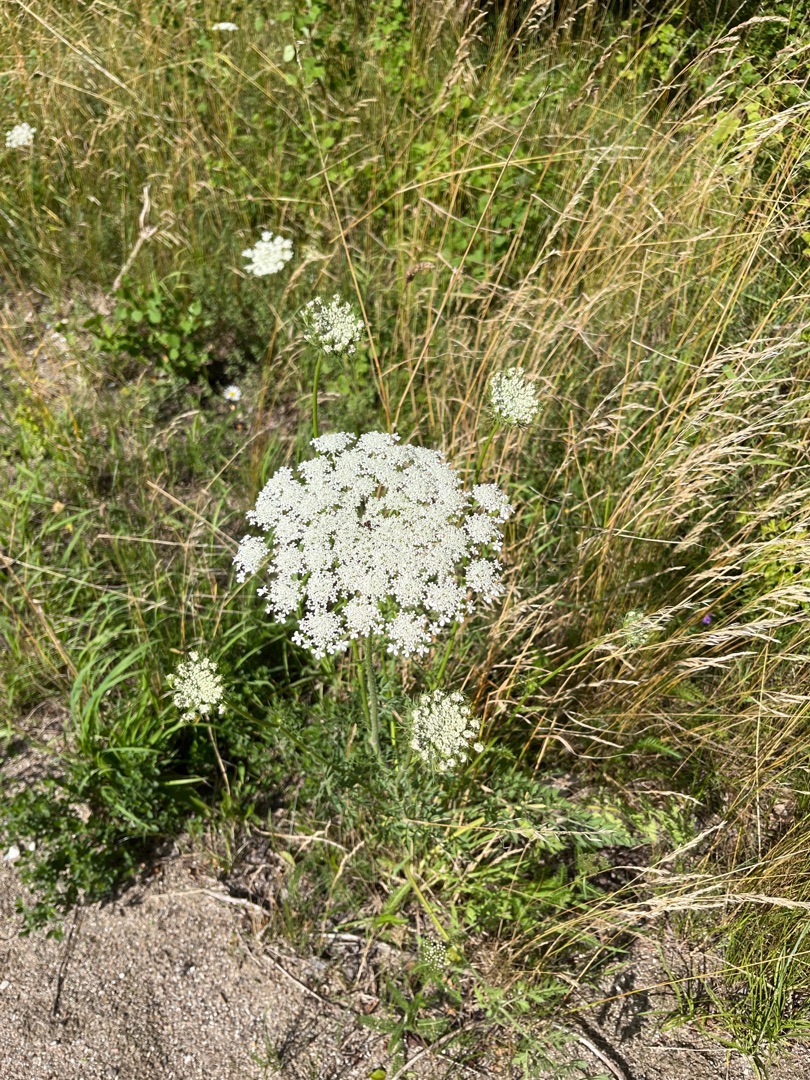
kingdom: Plantae
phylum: Tracheophyta
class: Magnoliopsida
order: Apiales
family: Apiaceae
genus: Daucus
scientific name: Daucus carota
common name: Gulerod
